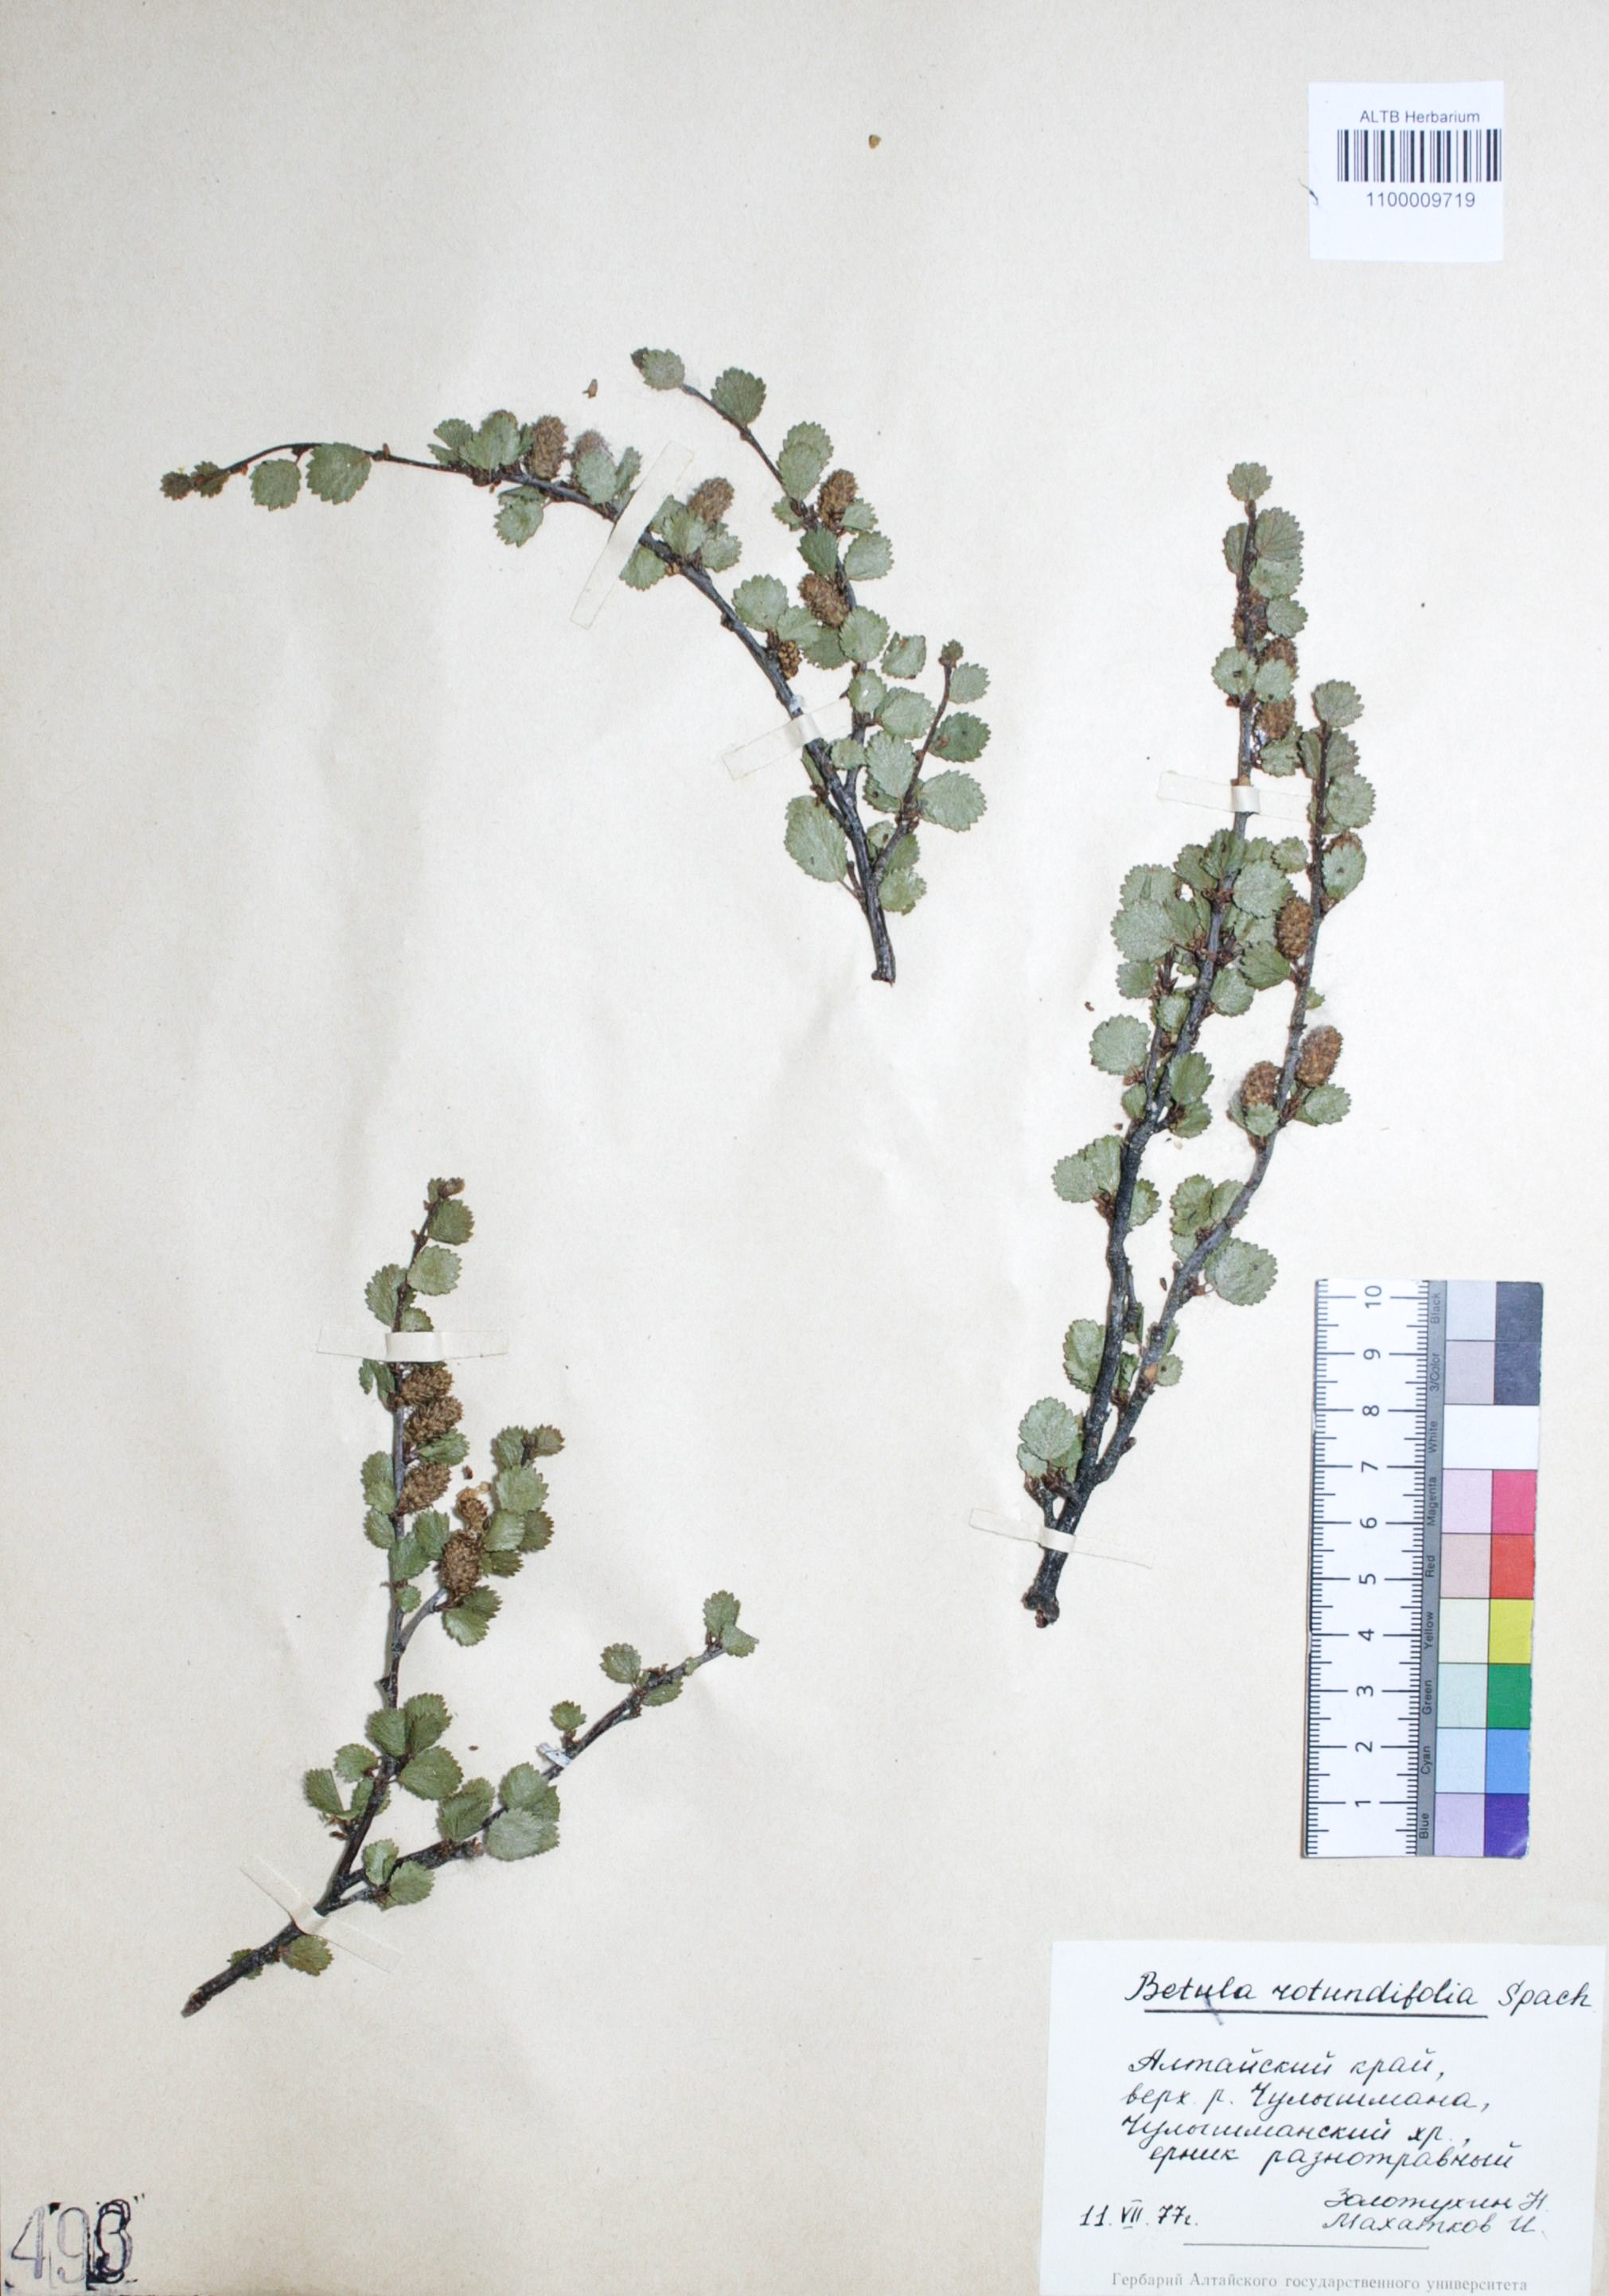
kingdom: Plantae
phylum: Tracheophyta
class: Magnoliopsida
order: Fagales
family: Betulaceae
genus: Betula
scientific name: Betula glandulosa
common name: Dwarf birch
